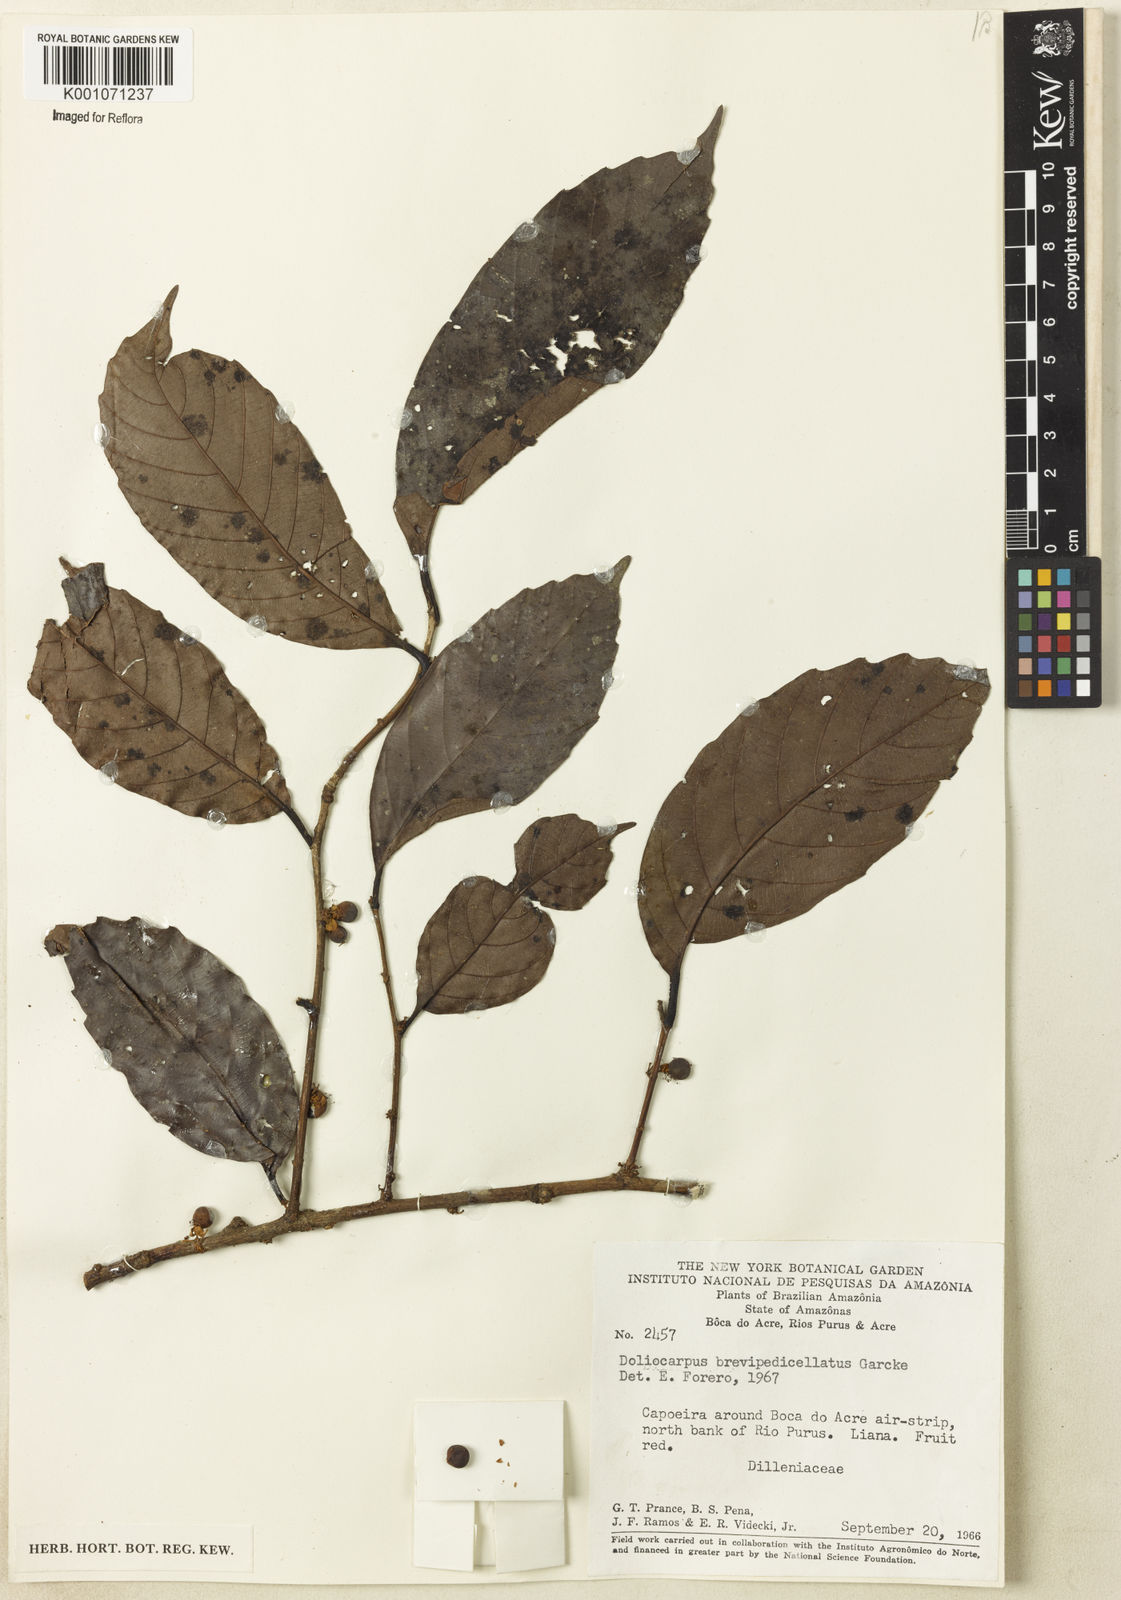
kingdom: Plantae
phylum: Tracheophyta
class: Magnoliopsida
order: Dilleniales
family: Dilleniaceae
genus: Doliocarpus
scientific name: Doliocarpus brevipedicellatus
